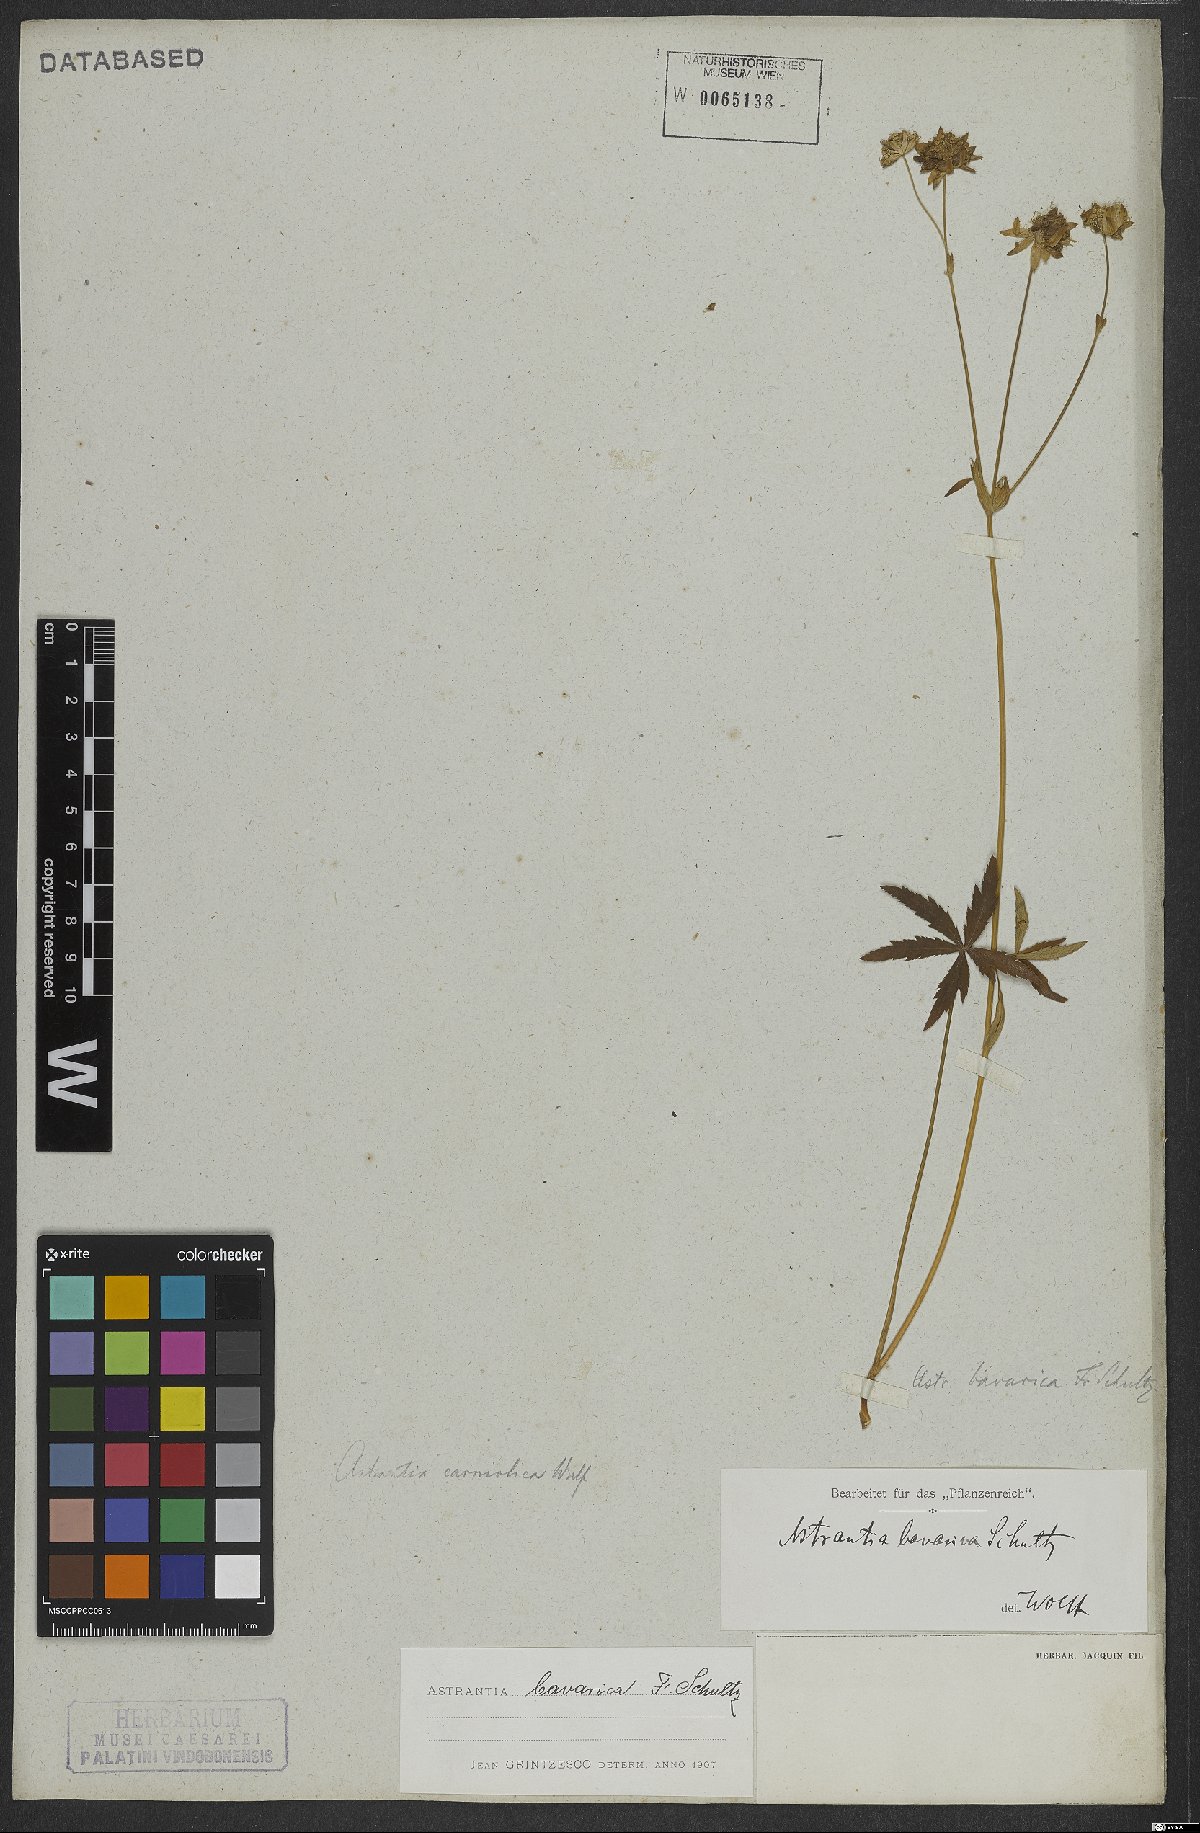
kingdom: Plantae
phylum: Tracheophyta
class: Magnoliopsida
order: Apiales
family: Apiaceae
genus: Astrantia
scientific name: Astrantia bavarica
